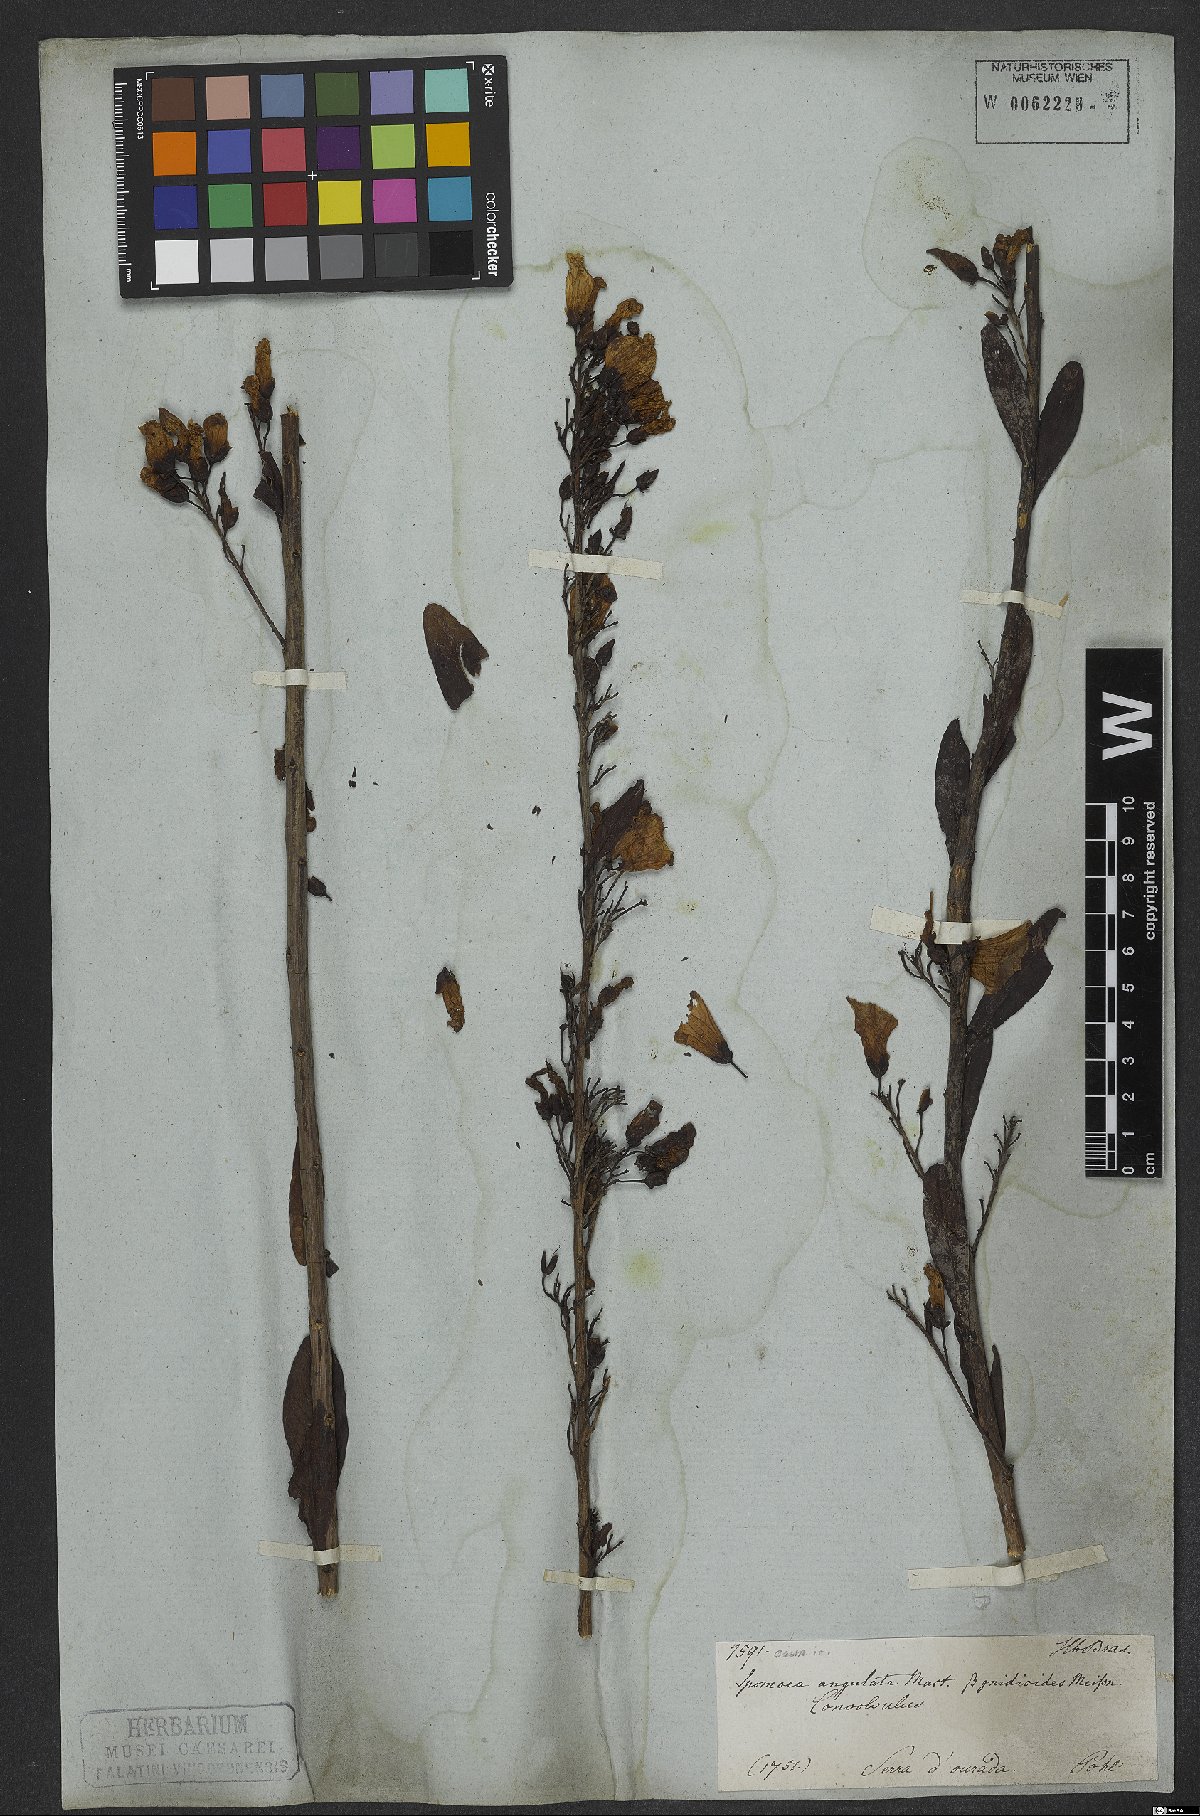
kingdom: Plantae
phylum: Tracheophyta
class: Magnoliopsida
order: Solanales
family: Convolvulaceae
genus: Ipomoea
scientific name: Ipomoea hederifolia
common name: Ivy-leaf morning-glory
